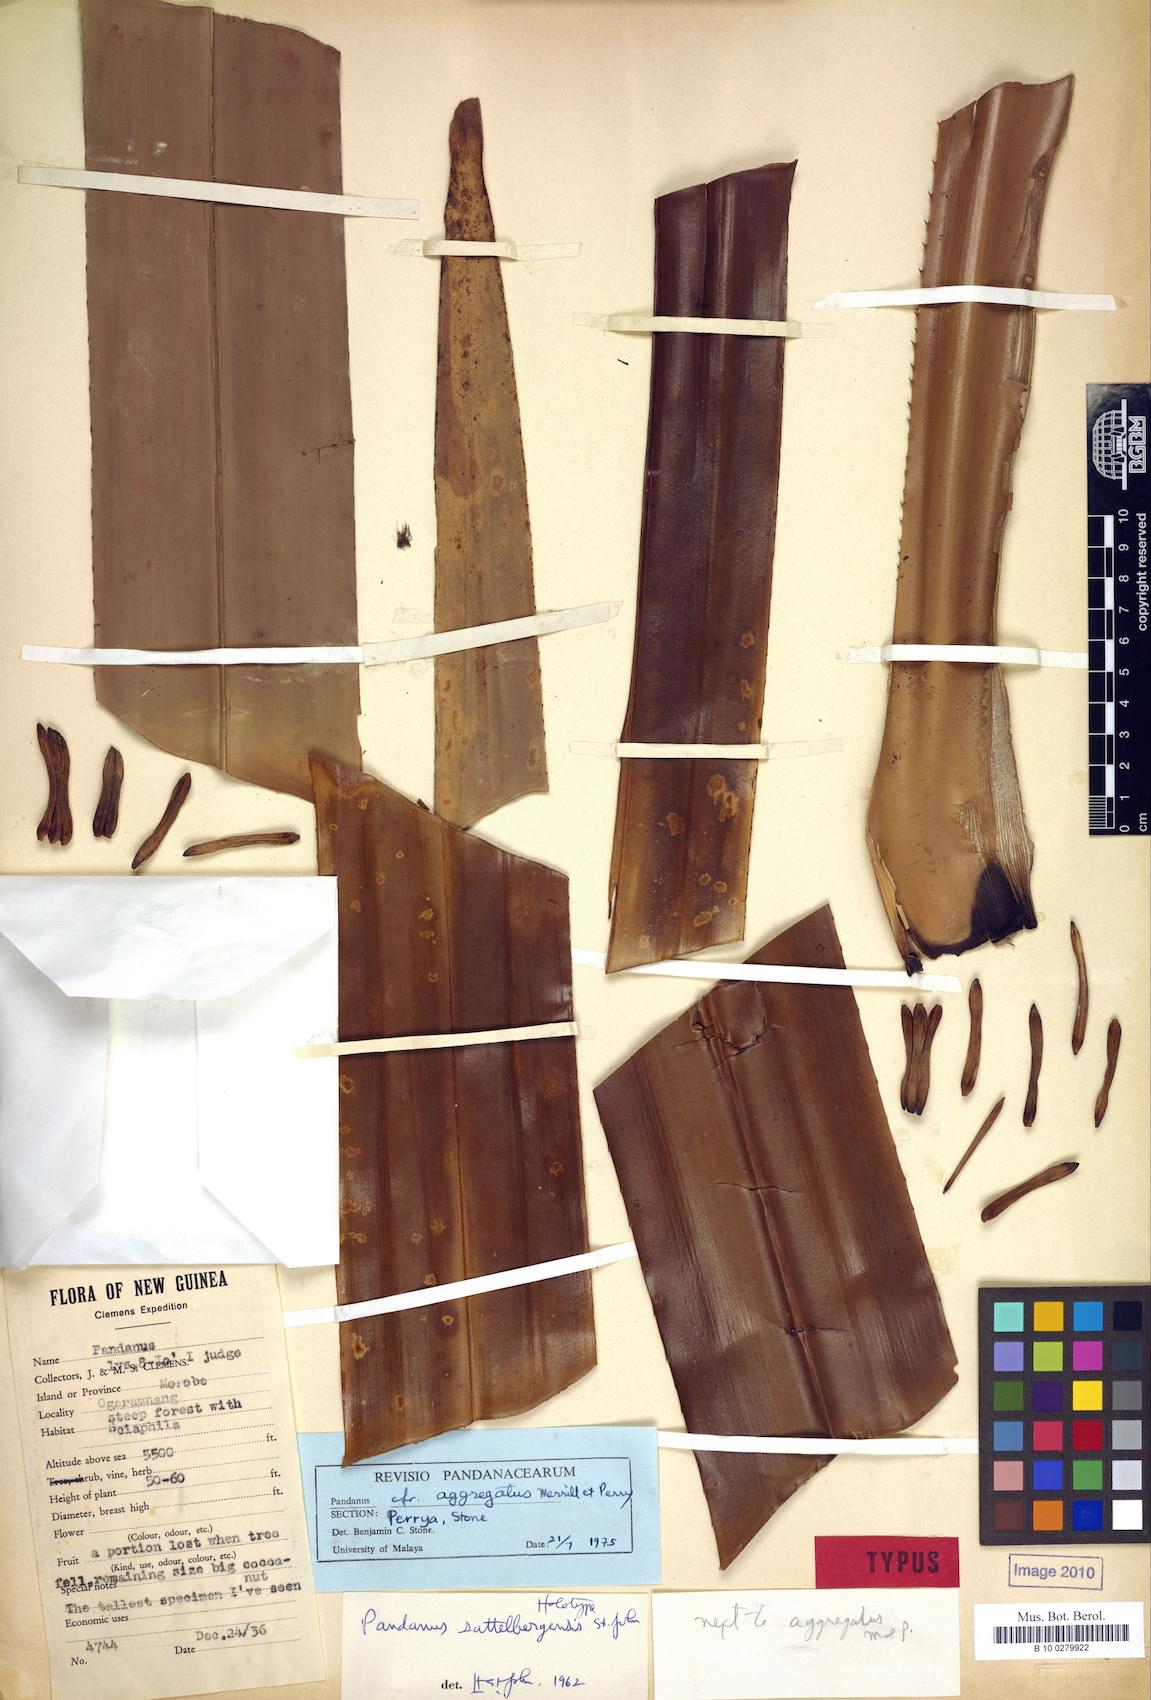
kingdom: Plantae
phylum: Tracheophyta
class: Liliopsida
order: Pandanales
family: Pandanaceae
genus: Pandanus
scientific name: Pandanus aggregatus
